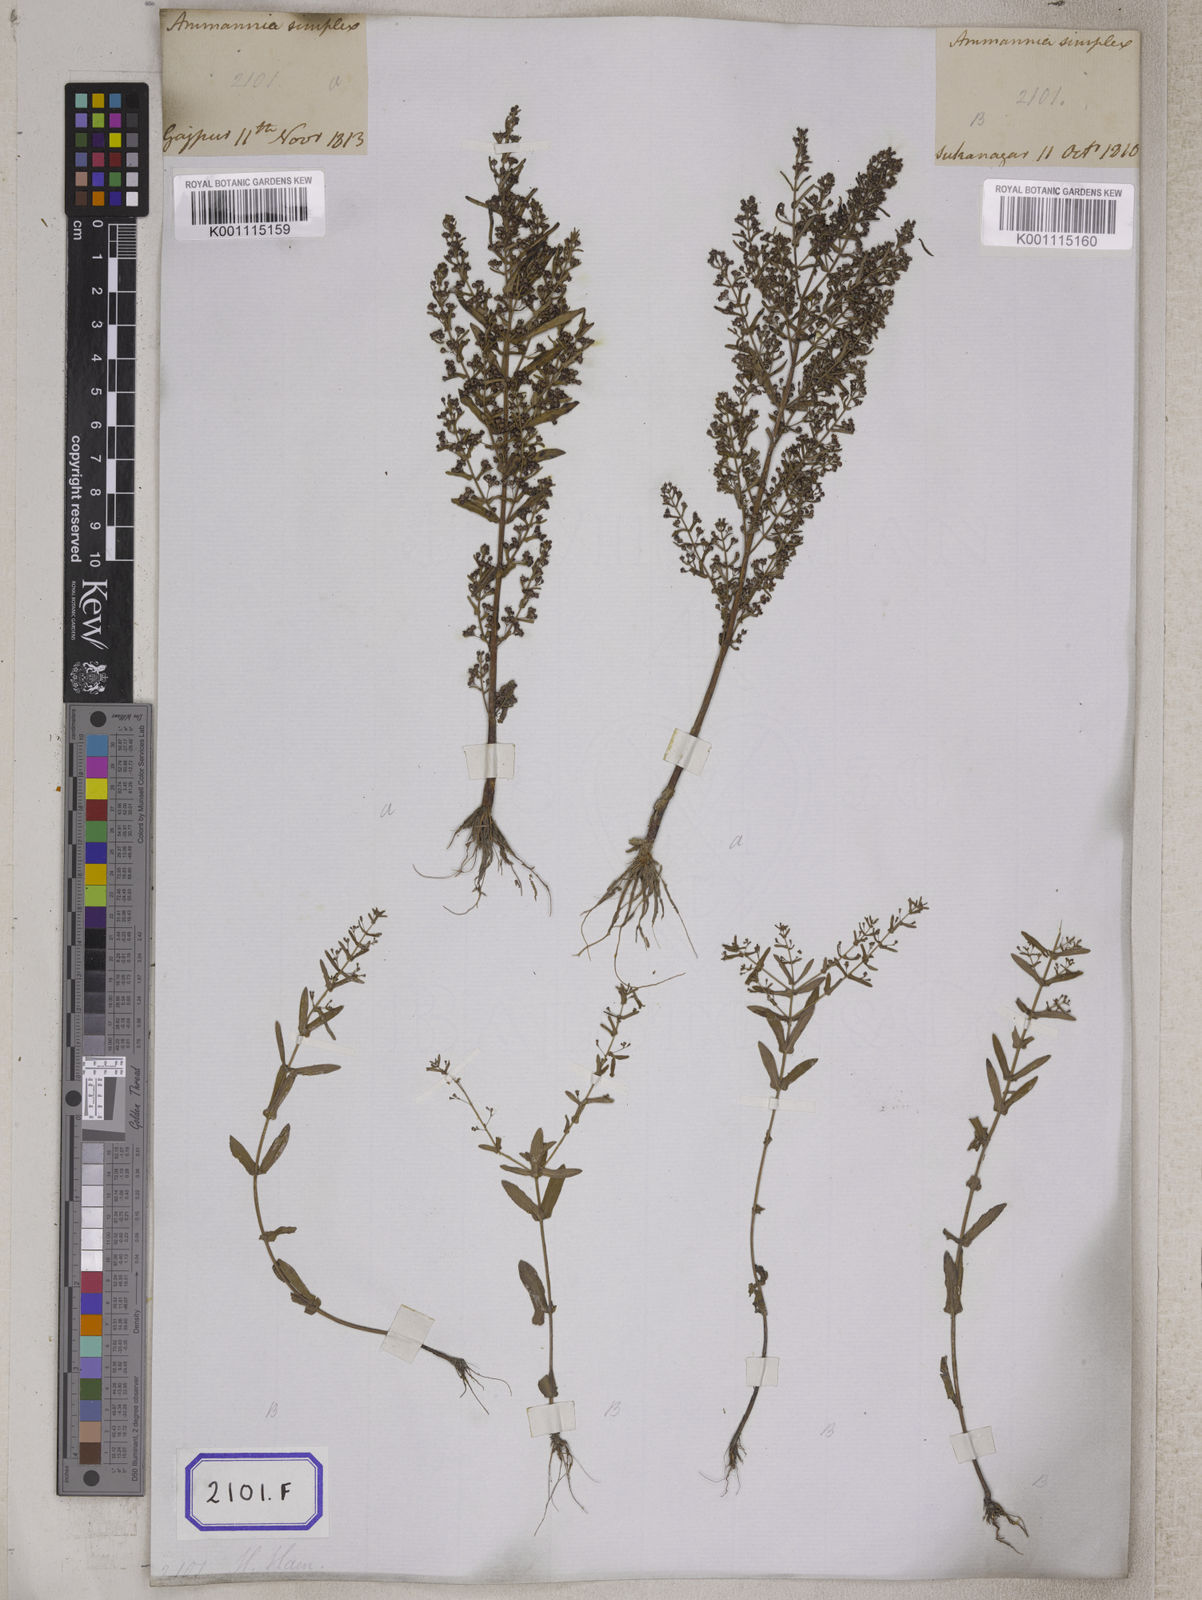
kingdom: Plantae
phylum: Tracheophyta
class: Magnoliopsida
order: Myrtales
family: Lythraceae
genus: Ammannia
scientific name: Ammannia auriculata
